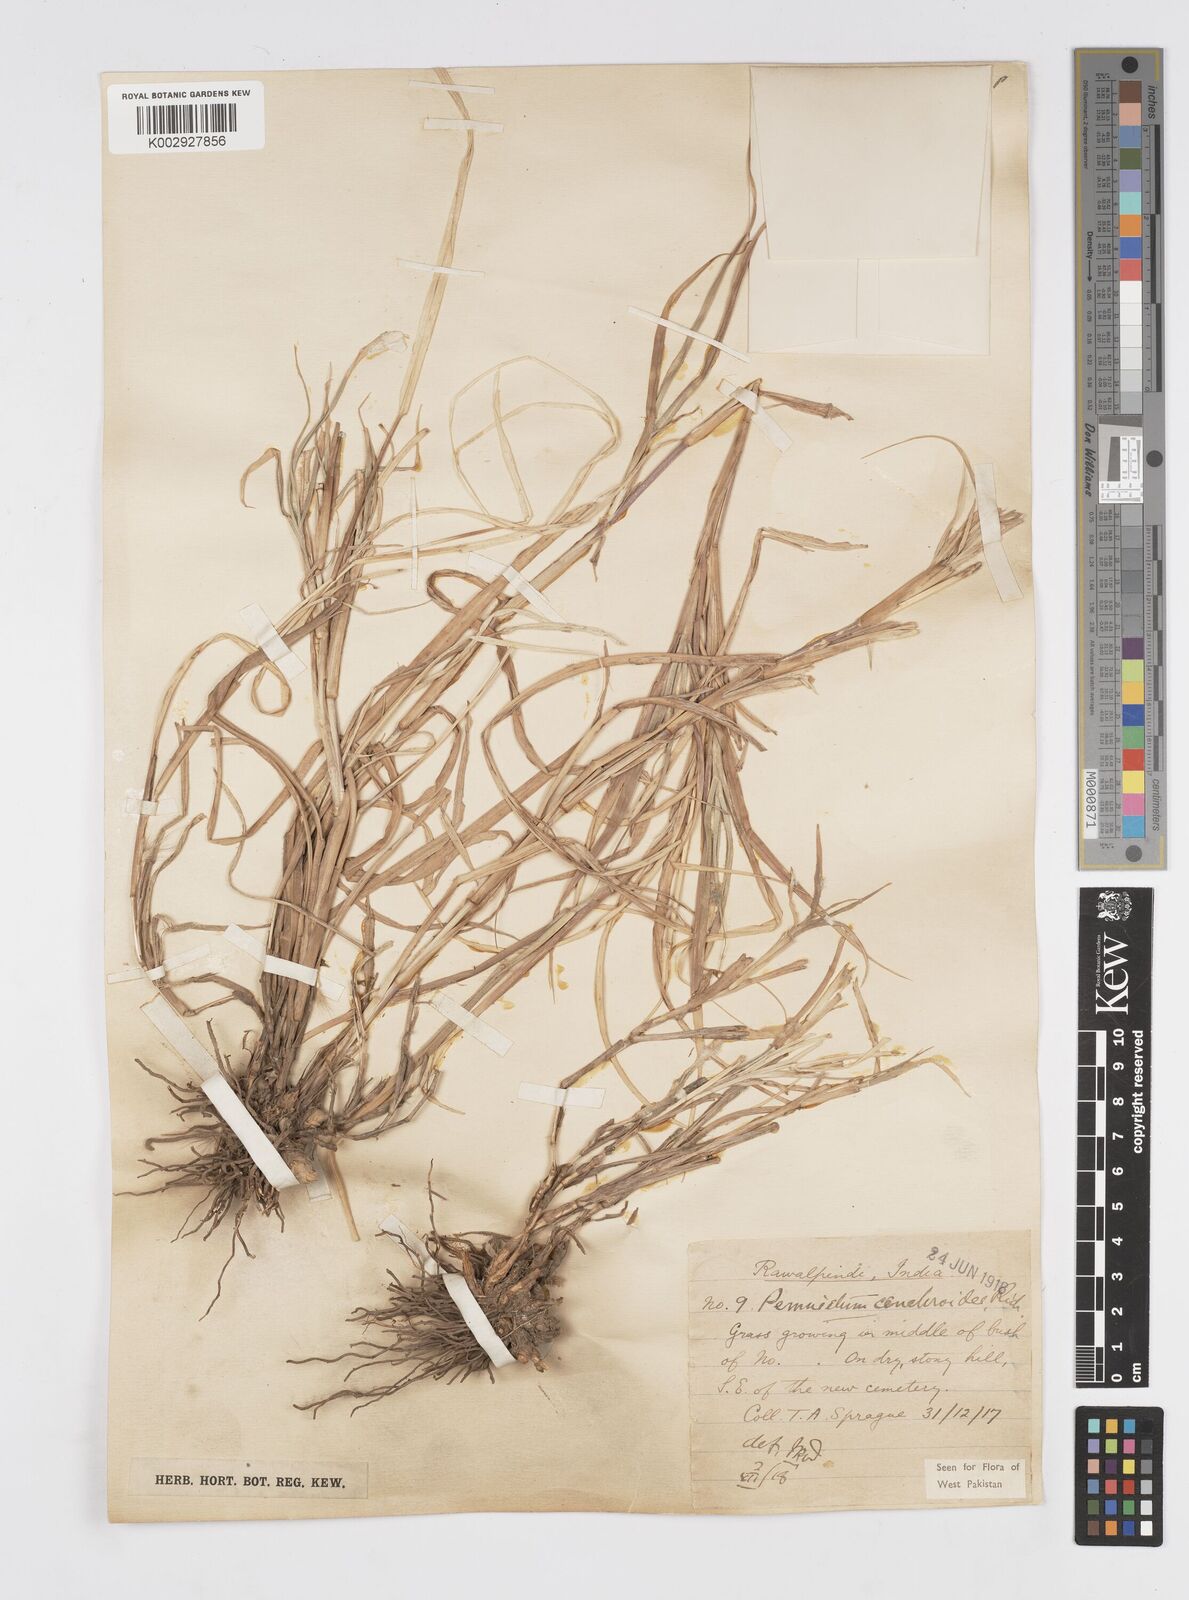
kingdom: Plantae
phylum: Tracheophyta
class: Liliopsida
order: Poales
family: Poaceae
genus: Cenchrus
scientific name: Cenchrus ciliaris
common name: Buffelgrass
